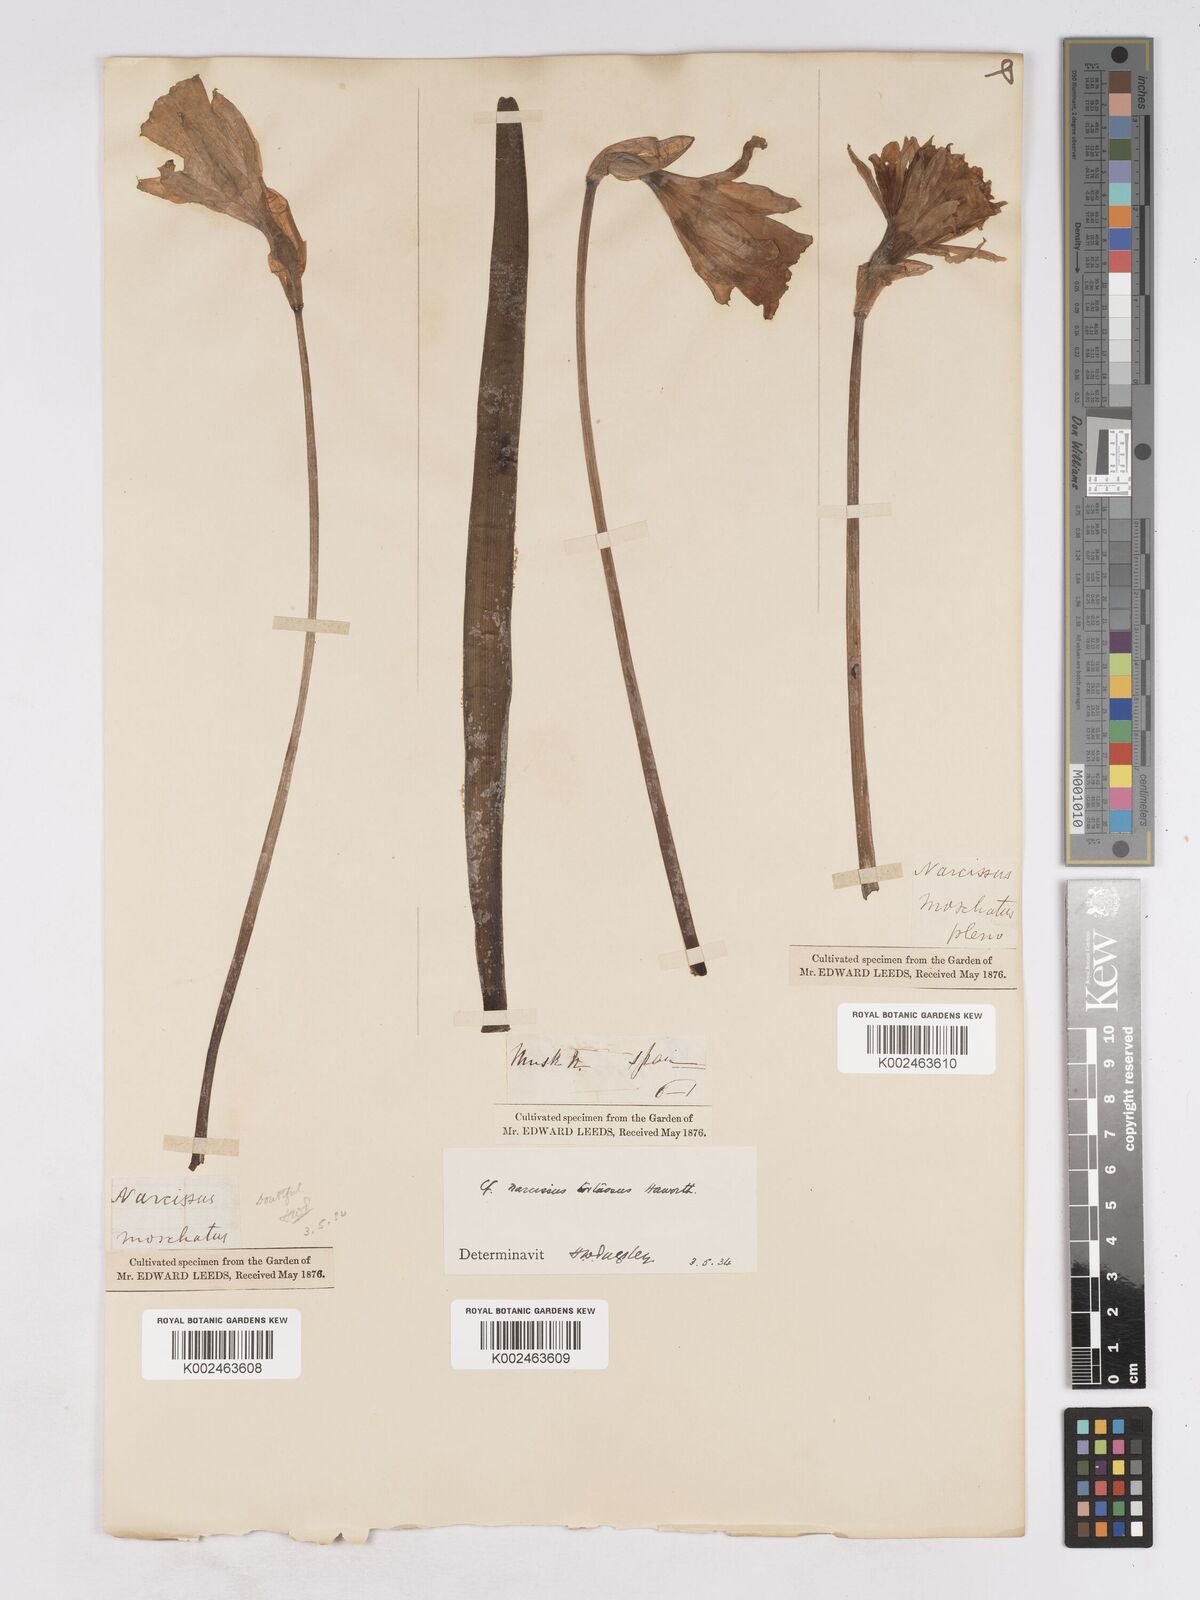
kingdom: Plantae
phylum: Tracheophyta
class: Liliopsida
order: Asparagales
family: Amaryllidaceae
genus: Narcissus
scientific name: Narcissus moschatus
